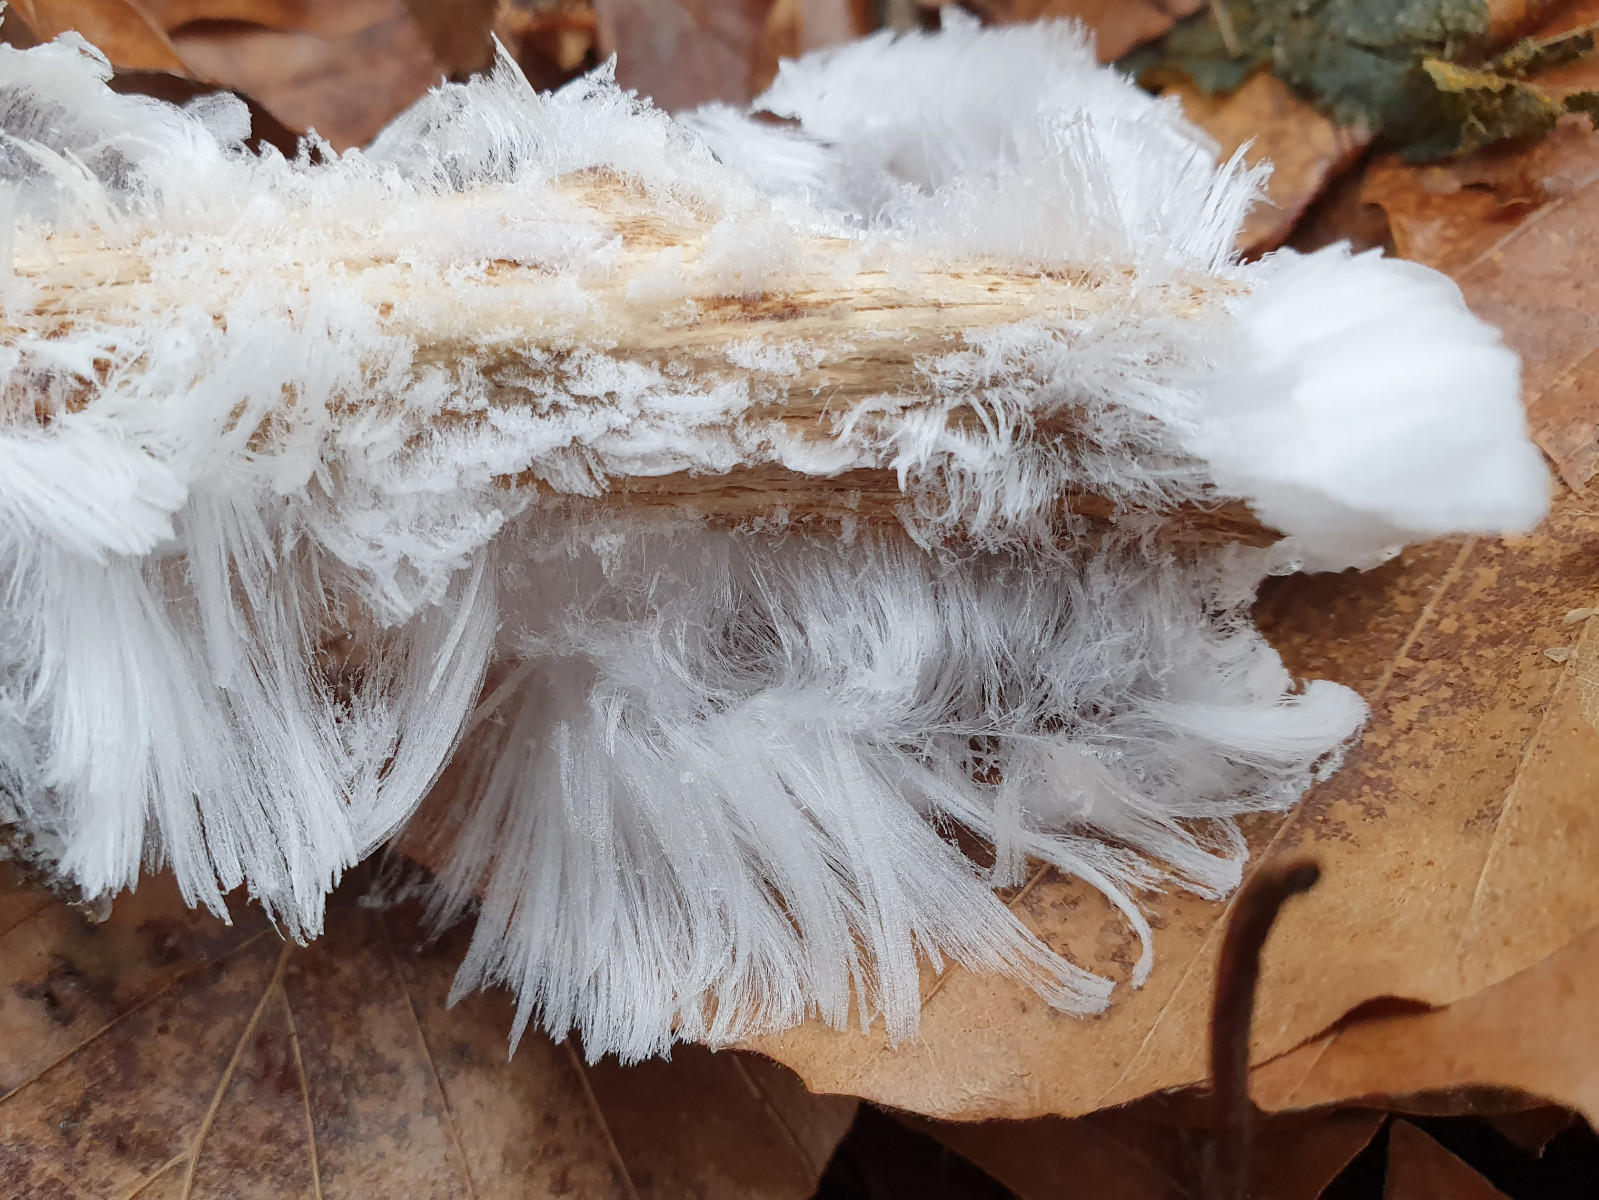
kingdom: Fungi
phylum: Basidiomycota
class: Tremellomycetes
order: Tremellales
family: Exidiaceae
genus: Exidiopsis
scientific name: Exidiopsis effusa
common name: smuk bævrehinde
